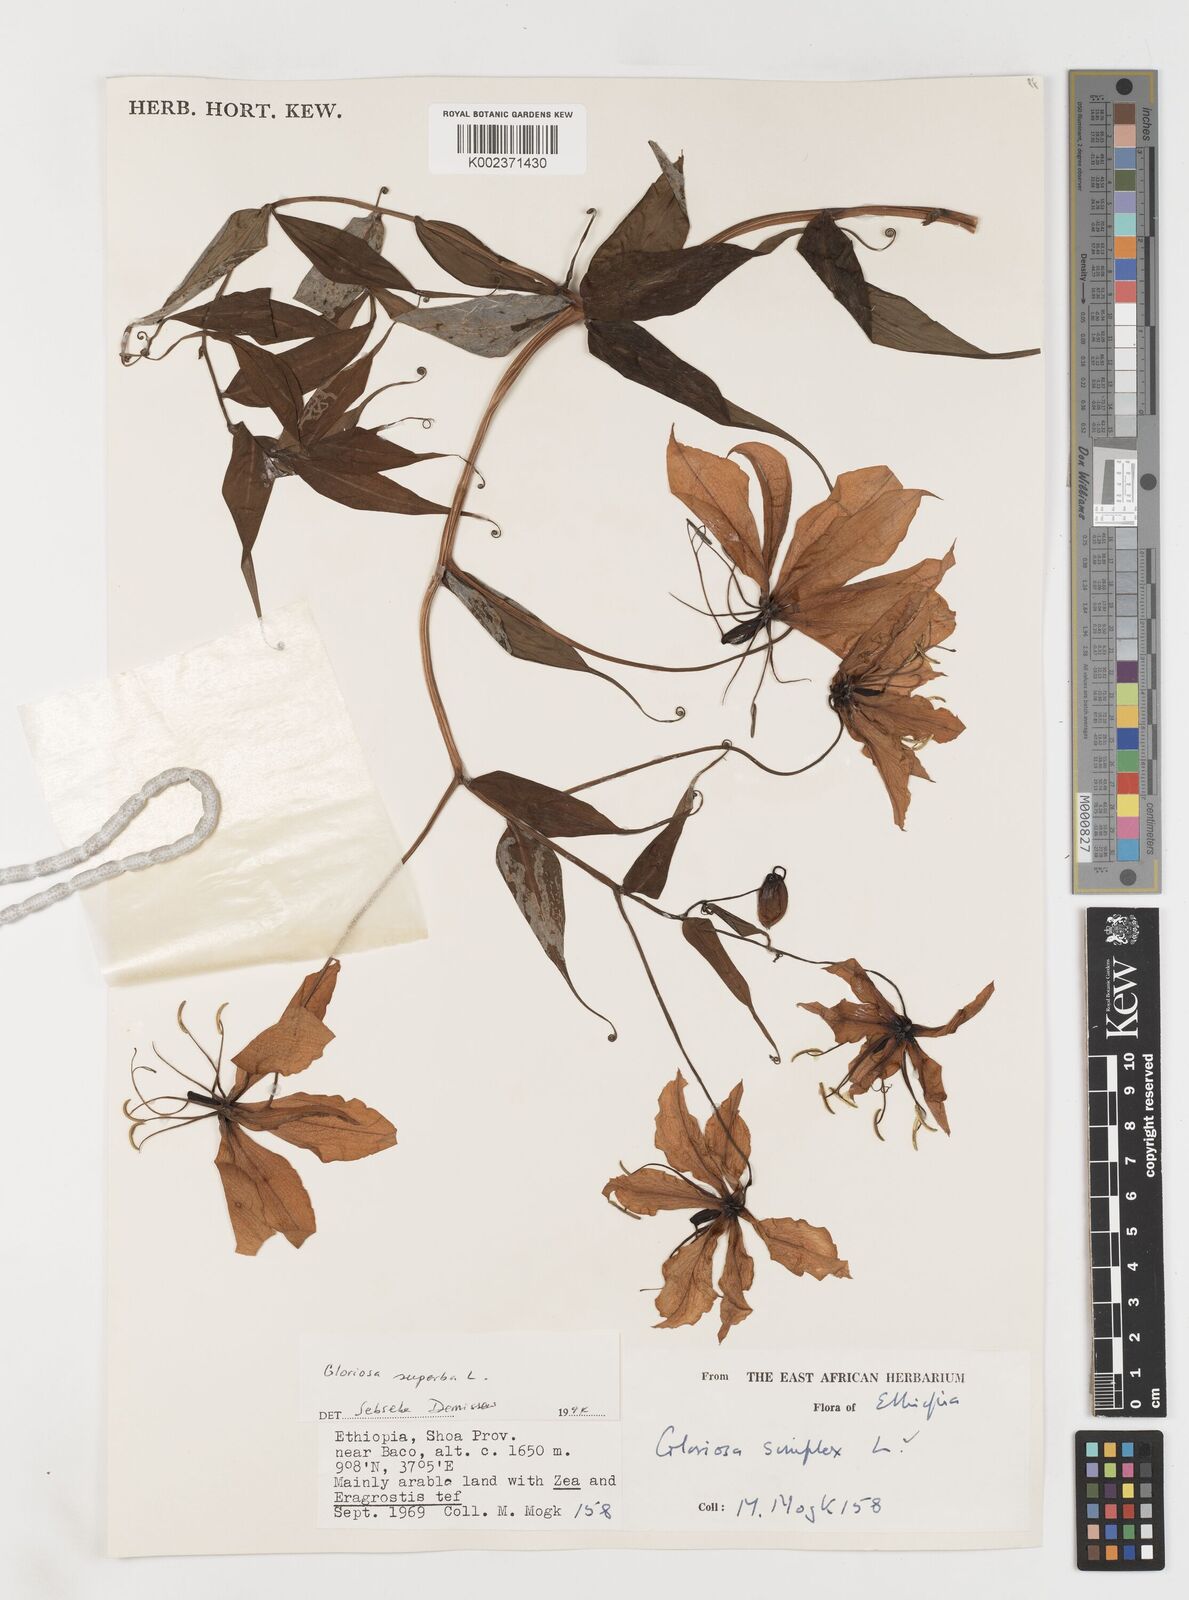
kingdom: Plantae
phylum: Tracheophyta
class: Liliopsida
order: Liliales
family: Colchicaceae
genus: Gloriosa
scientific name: Gloriosa simplex
